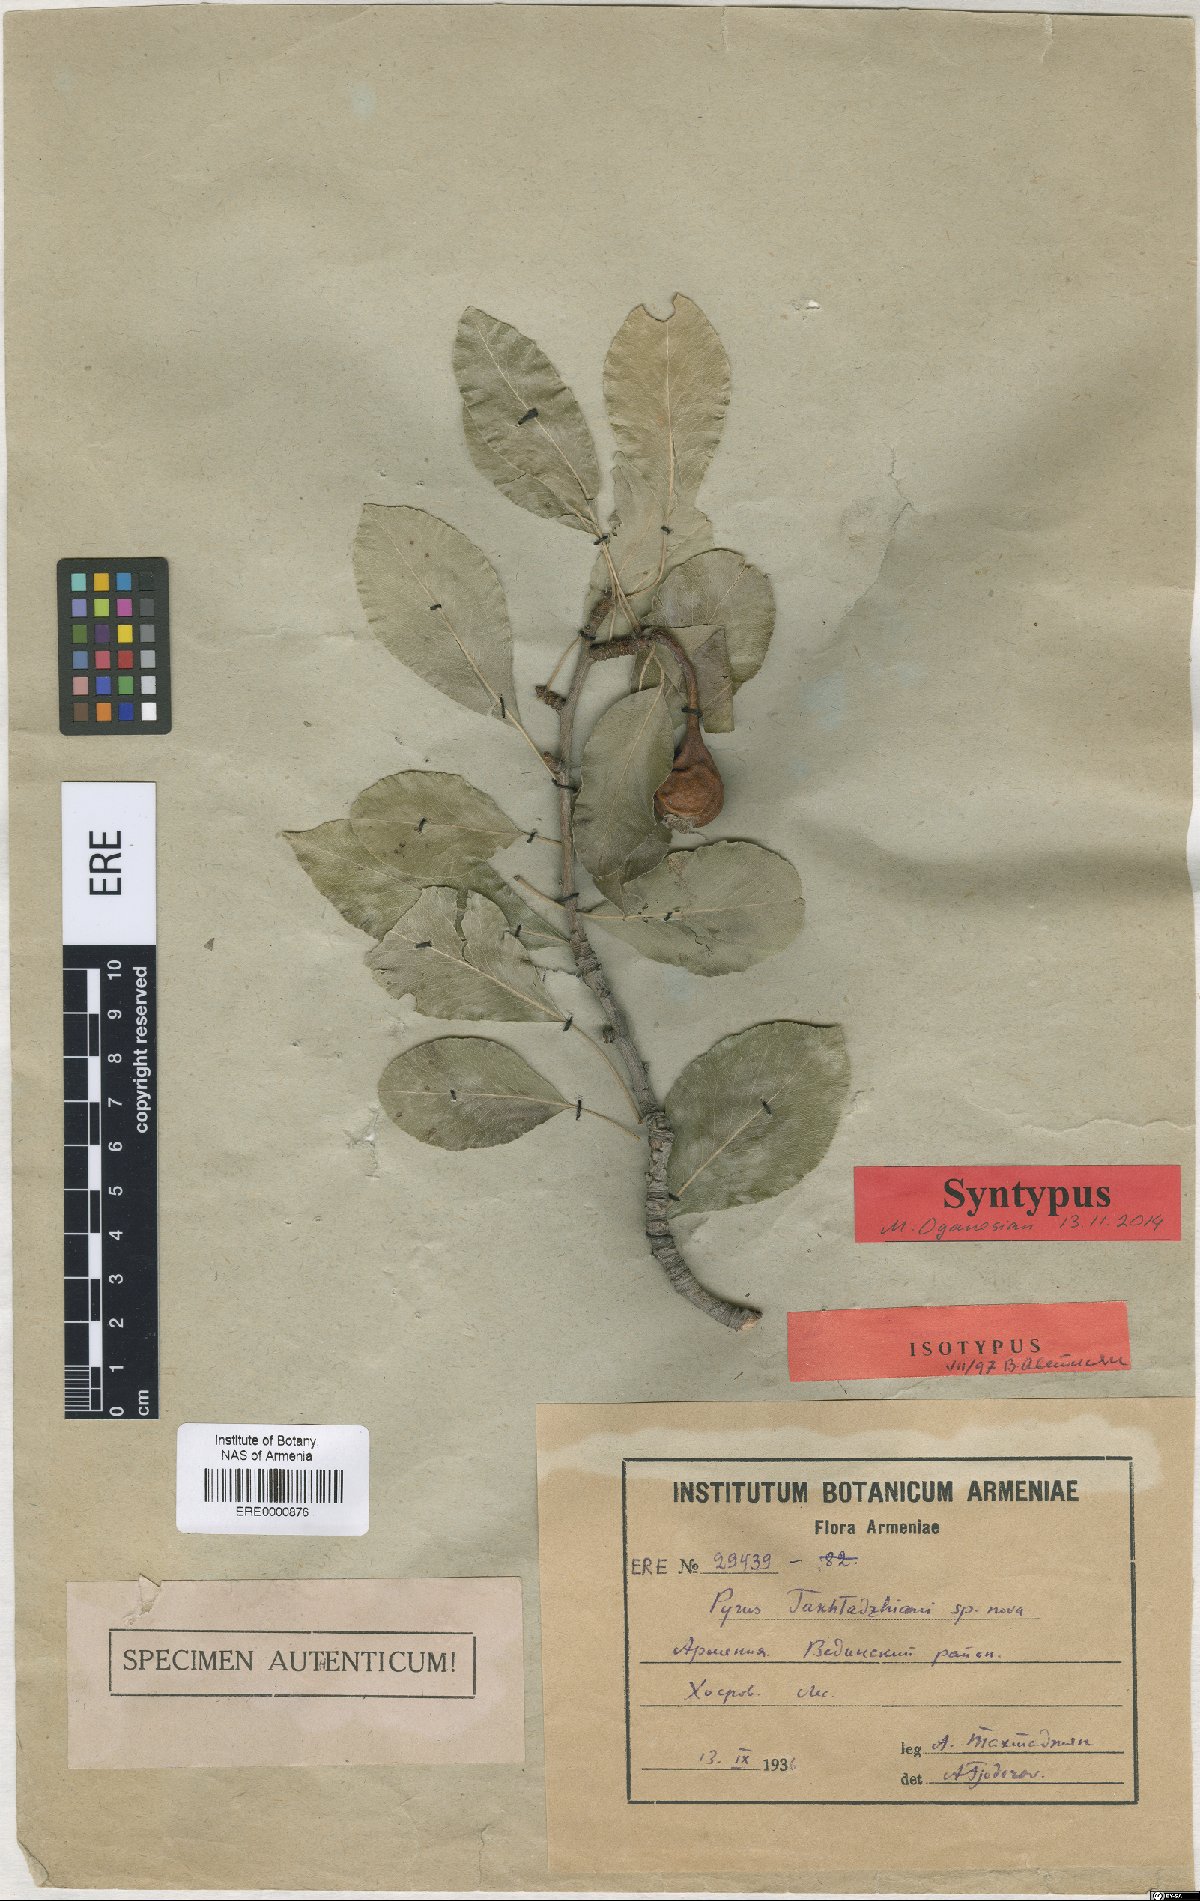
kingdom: Plantae
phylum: Tracheophyta
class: Magnoliopsida
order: Rosales
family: Rosaceae
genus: Pyrus
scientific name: Pyrus takhtadzhianii
